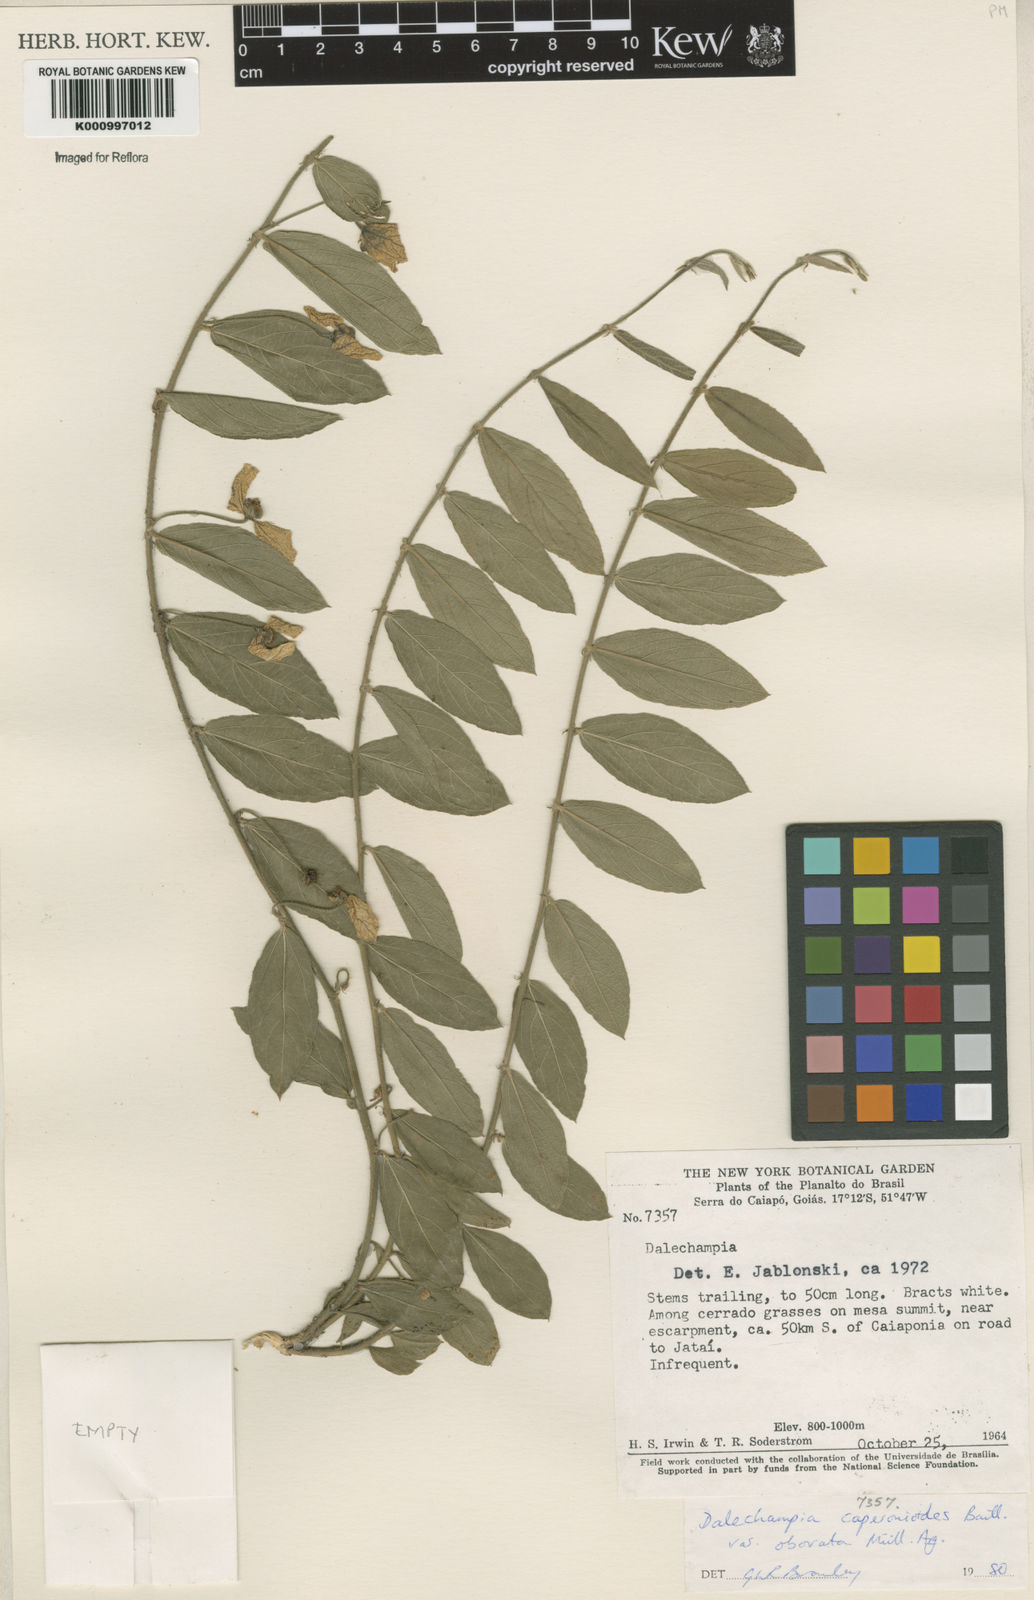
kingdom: Plantae
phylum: Tracheophyta
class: Magnoliopsida
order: Malpighiales
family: Euphorbiaceae
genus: Dalechampia
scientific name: Dalechampia caperonioides
